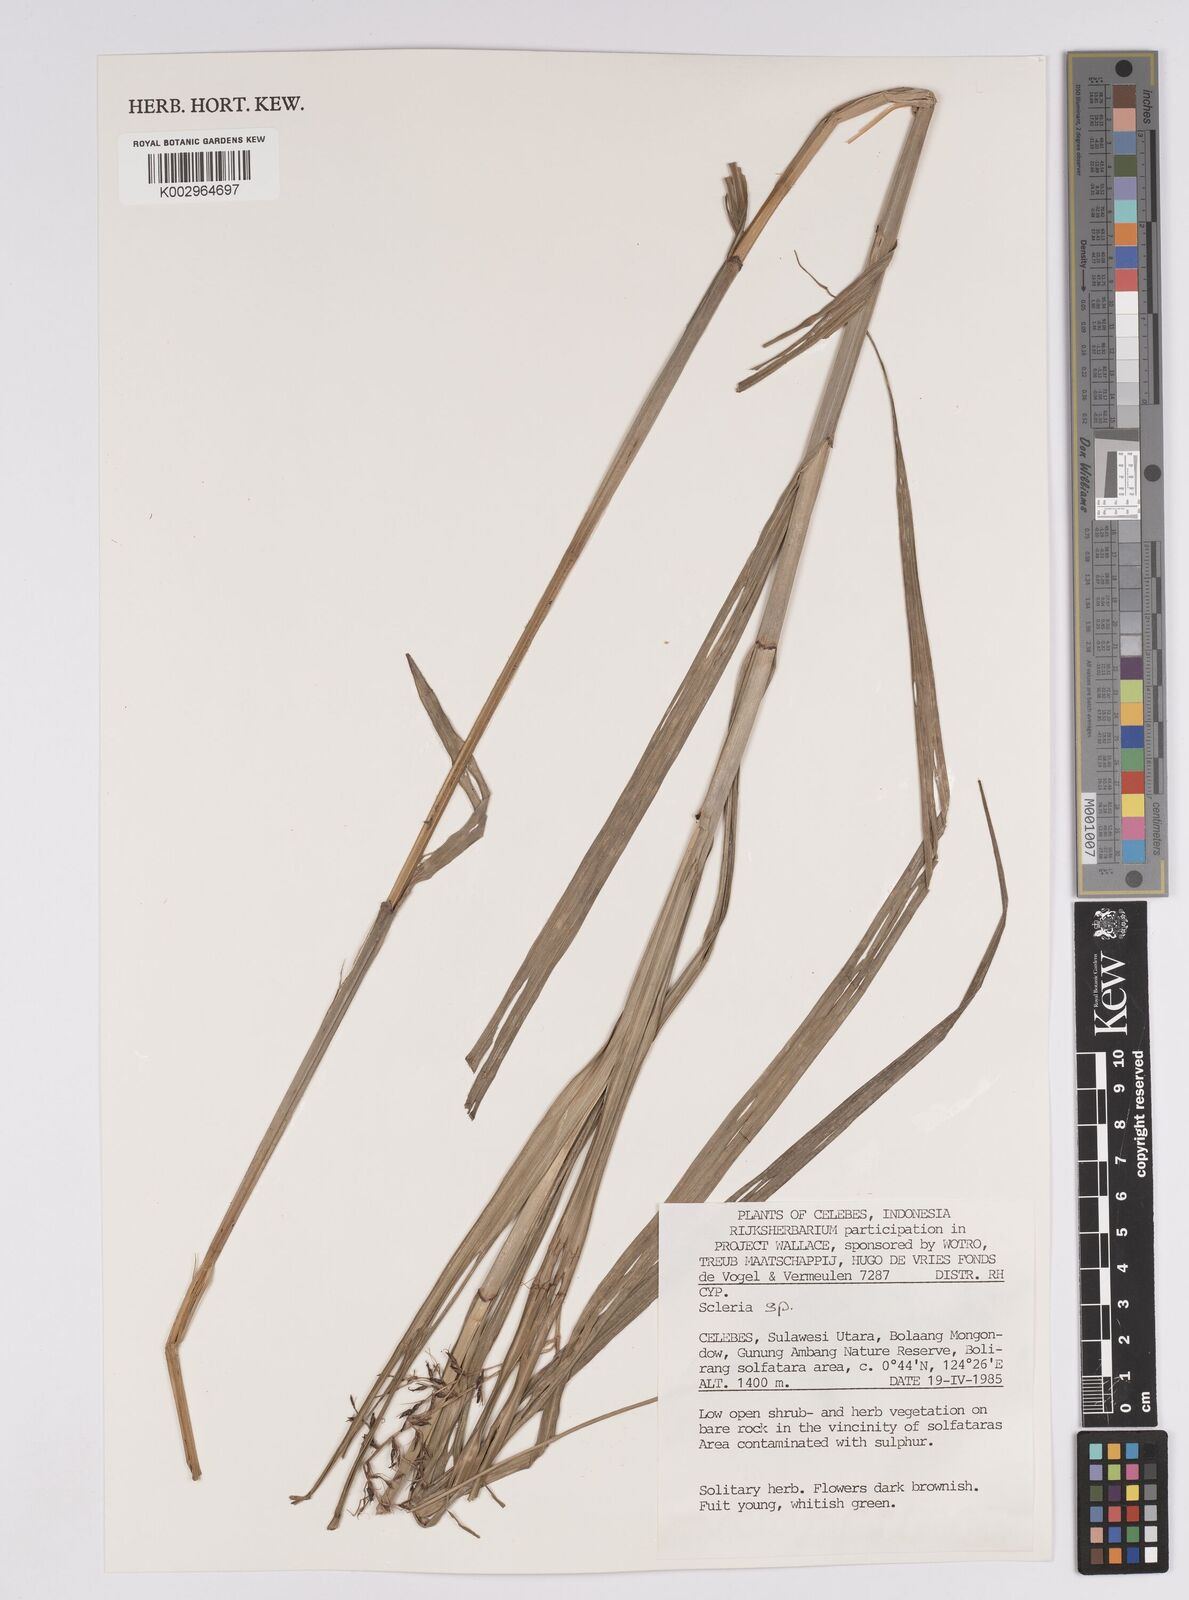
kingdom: Plantae
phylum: Tracheophyta
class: Liliopsida
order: Poales
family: Cyperaceae
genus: Scleria
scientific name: Scleria
